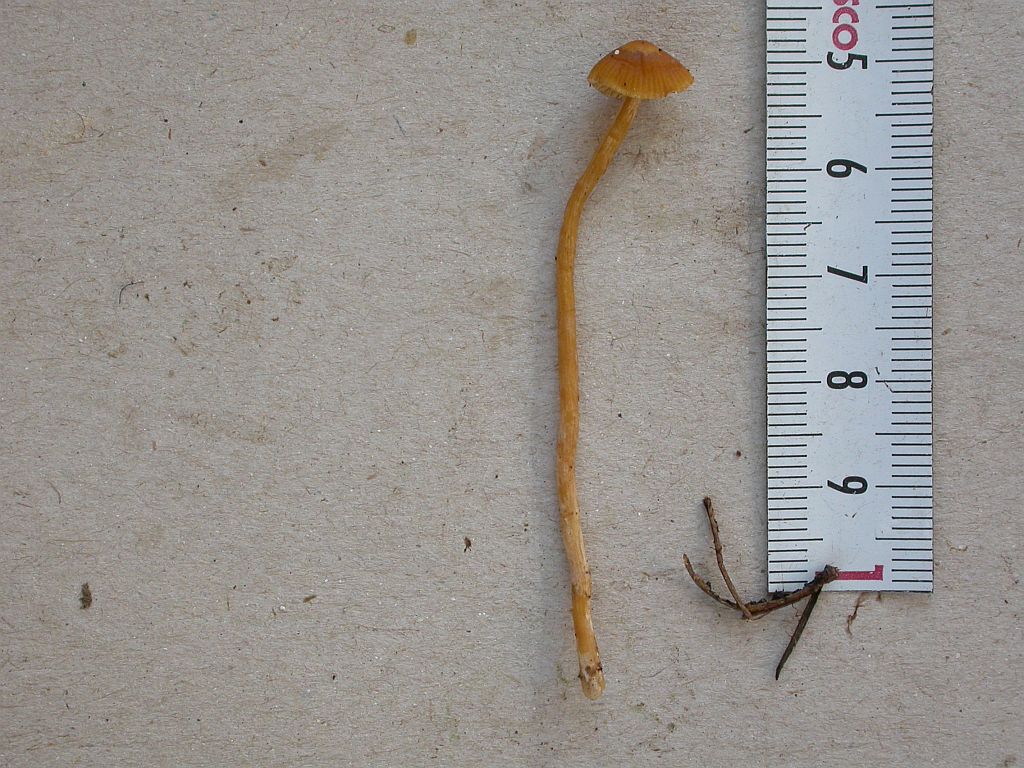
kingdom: Fungi
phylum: Basidiomycota
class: Agaricomycetes
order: Agaricales
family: Hymenogastraceae
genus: Galerina
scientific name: Galerina pumila
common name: honninggul hjelmhat
